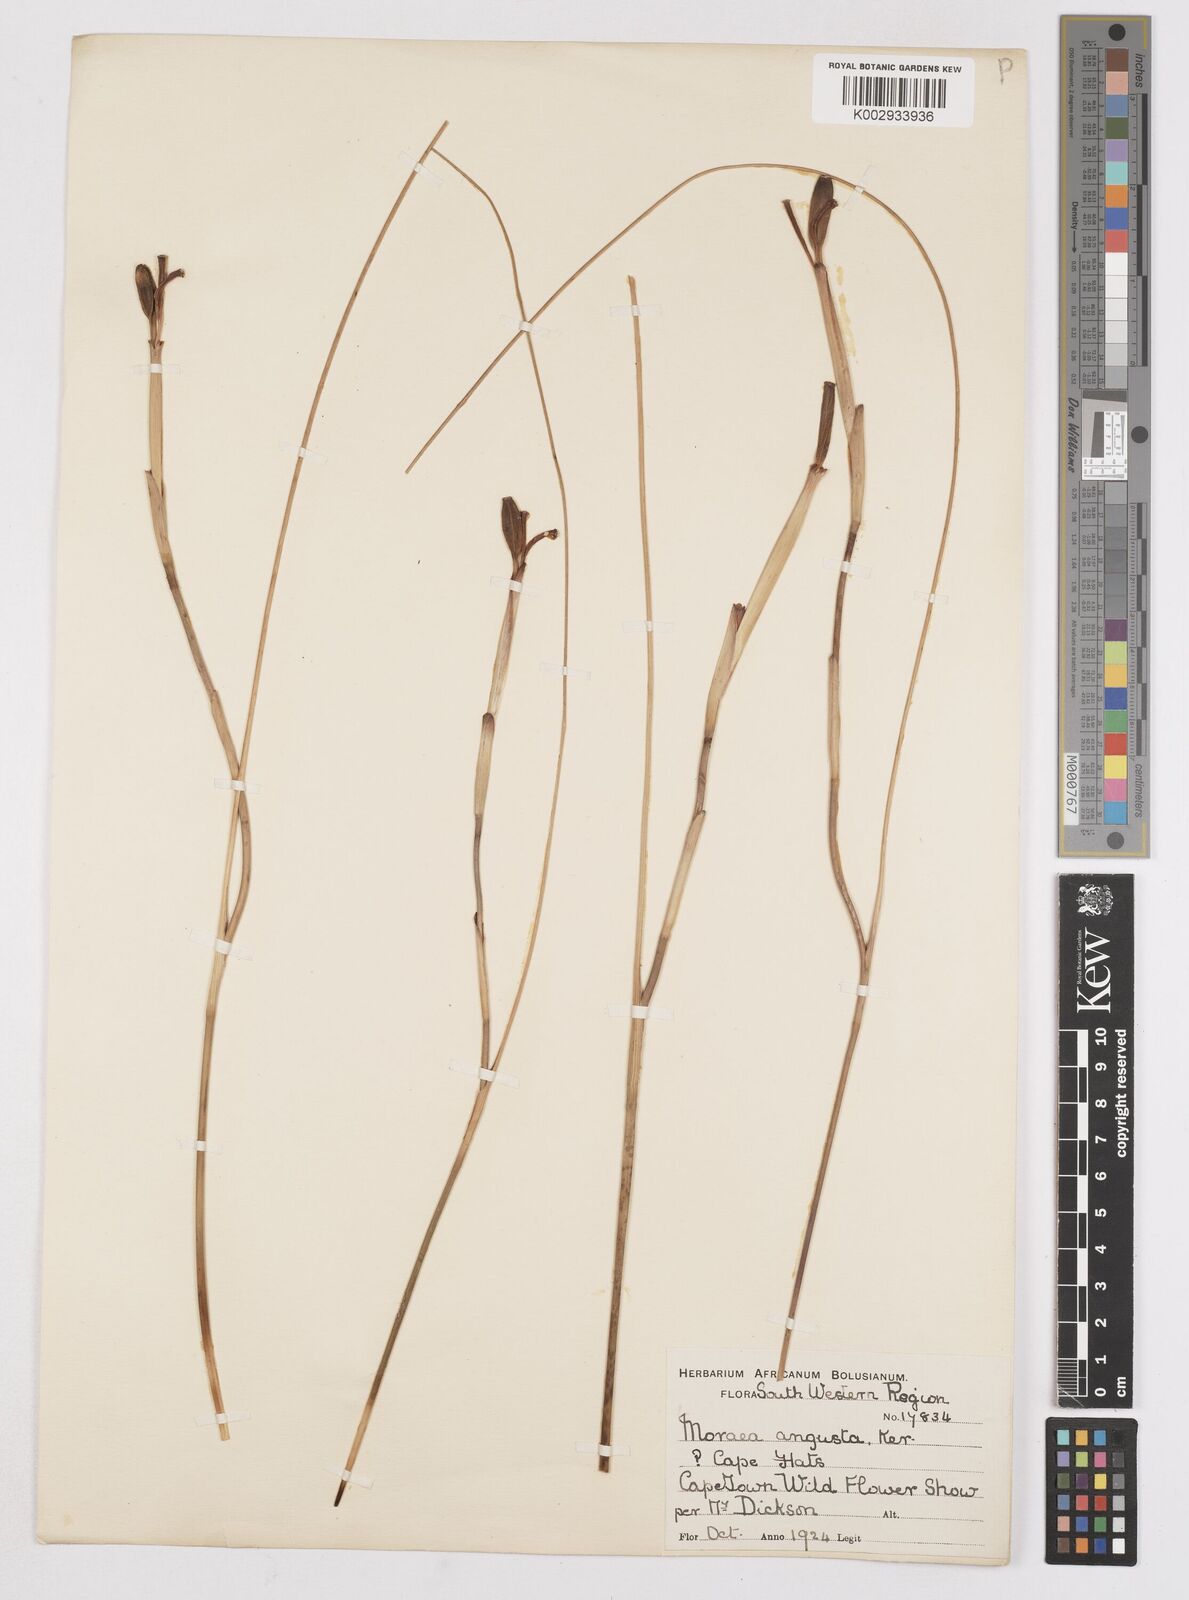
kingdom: Plantae
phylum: Tracheophyta
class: Liliopsida
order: Asparagales
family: Iridaceae
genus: Moraea
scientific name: Moraea angusta
